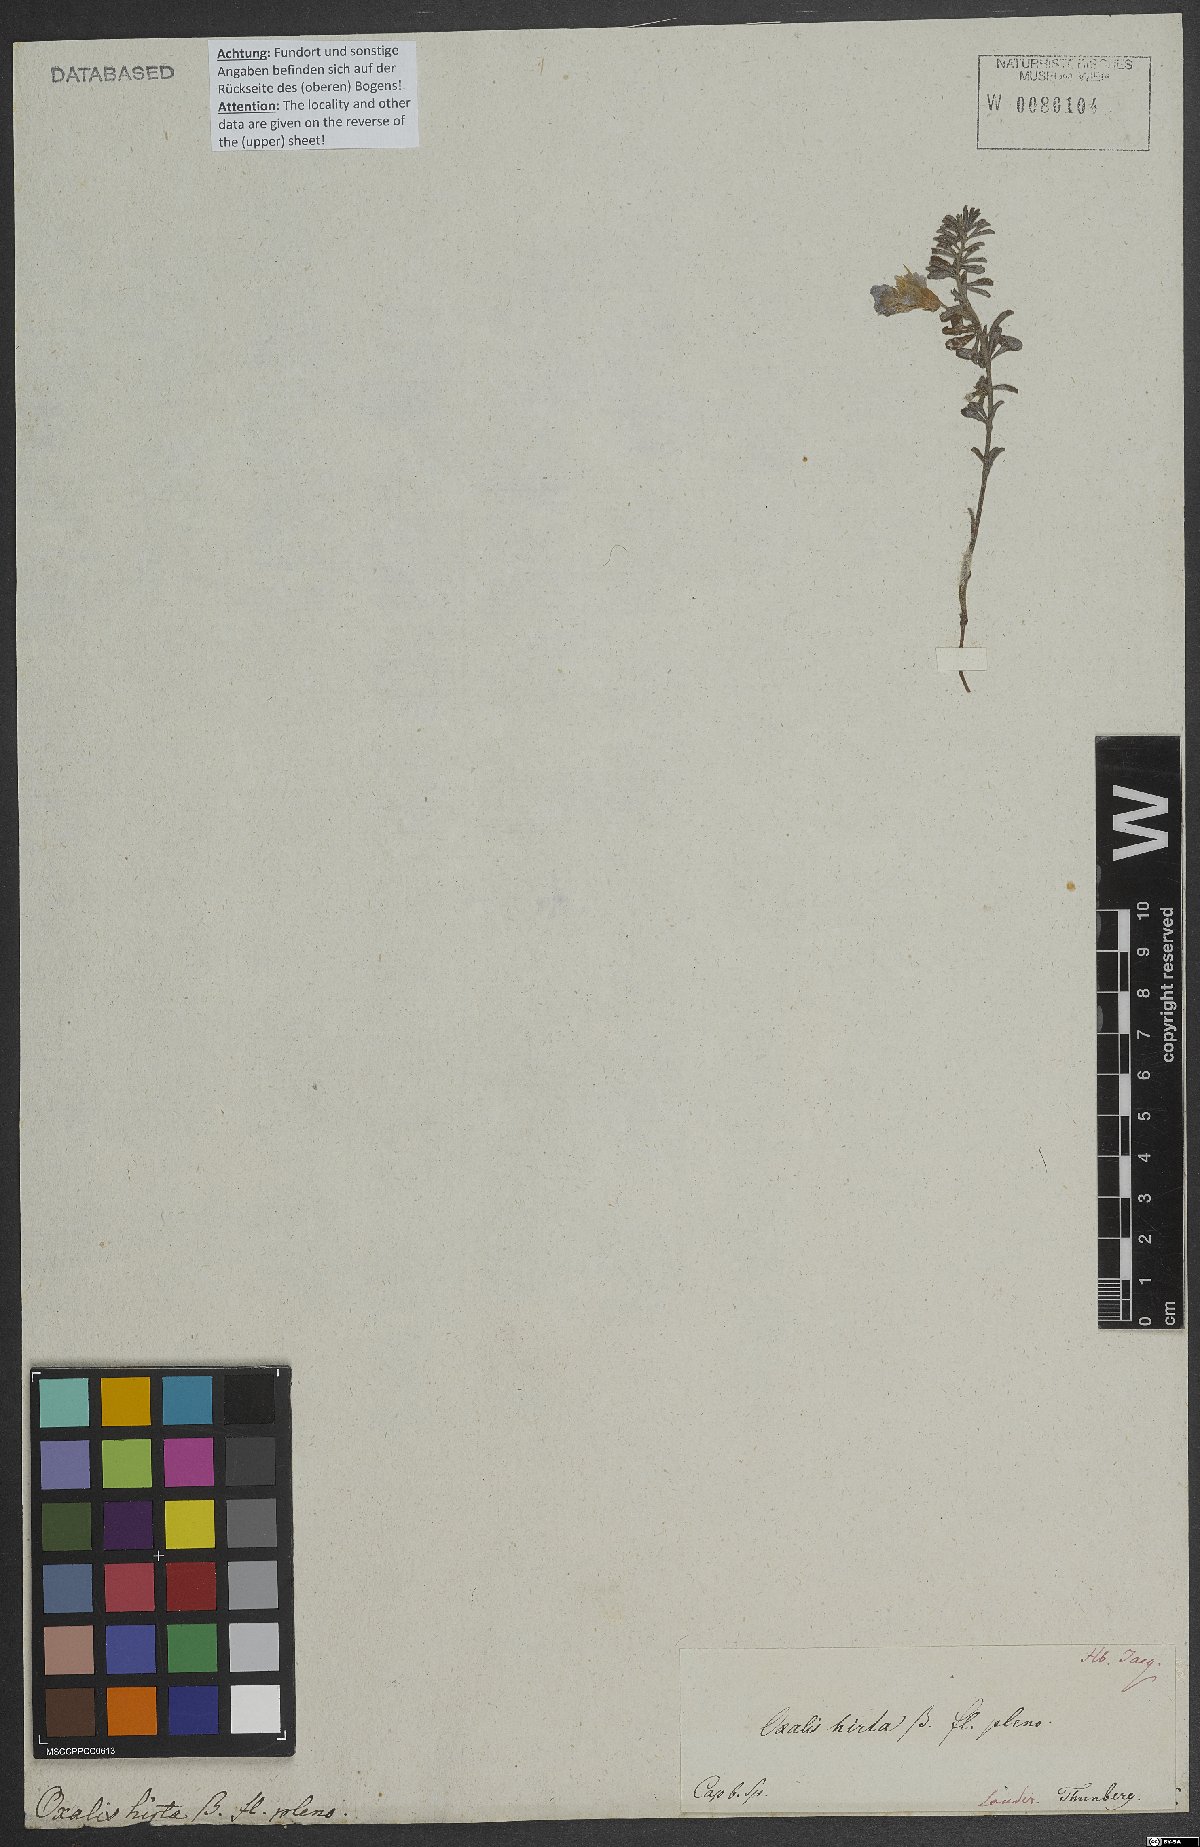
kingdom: Plantae
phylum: Tracheophyta
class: Magnoliopsida
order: Oxalidales
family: Oxalidaceae
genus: Oxalis
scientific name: Oxalis hirta
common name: Tropical woodsorrel
